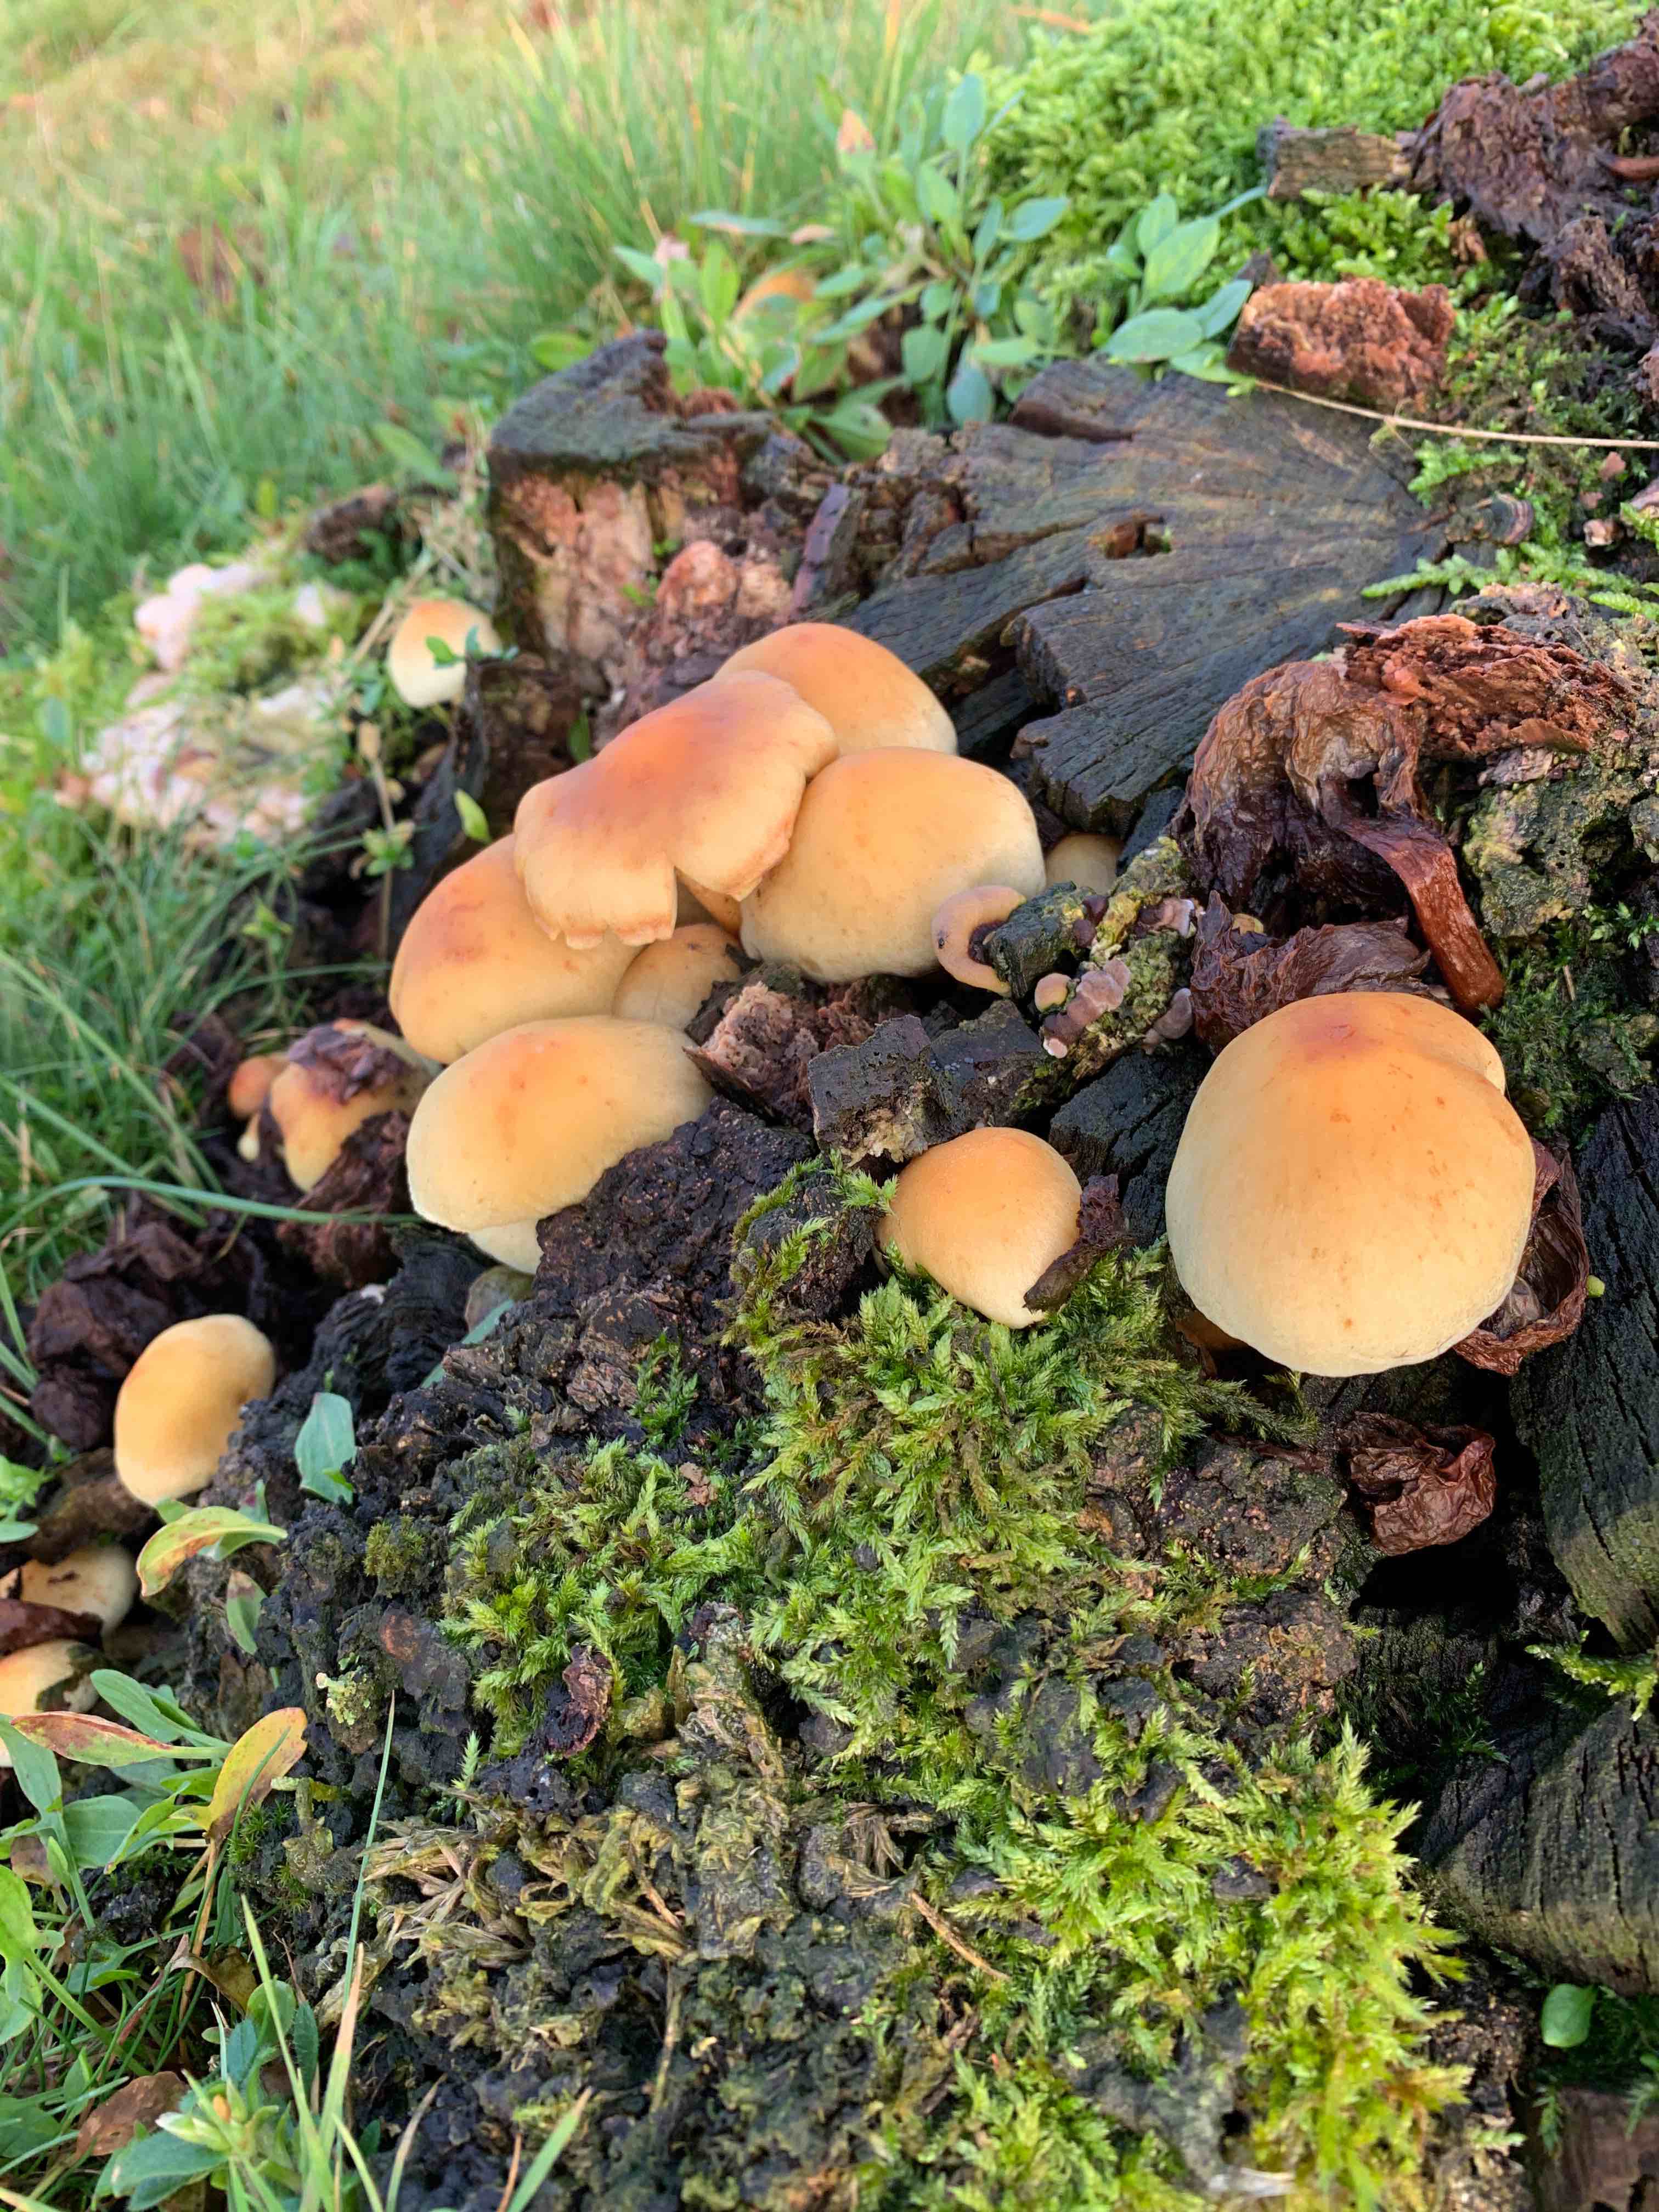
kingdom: Fungi
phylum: Basidiomycota
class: Agaricomycetes
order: Agaricales
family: Strophariaceae
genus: Hypholoma
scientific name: Hypholoma
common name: svovlhat
